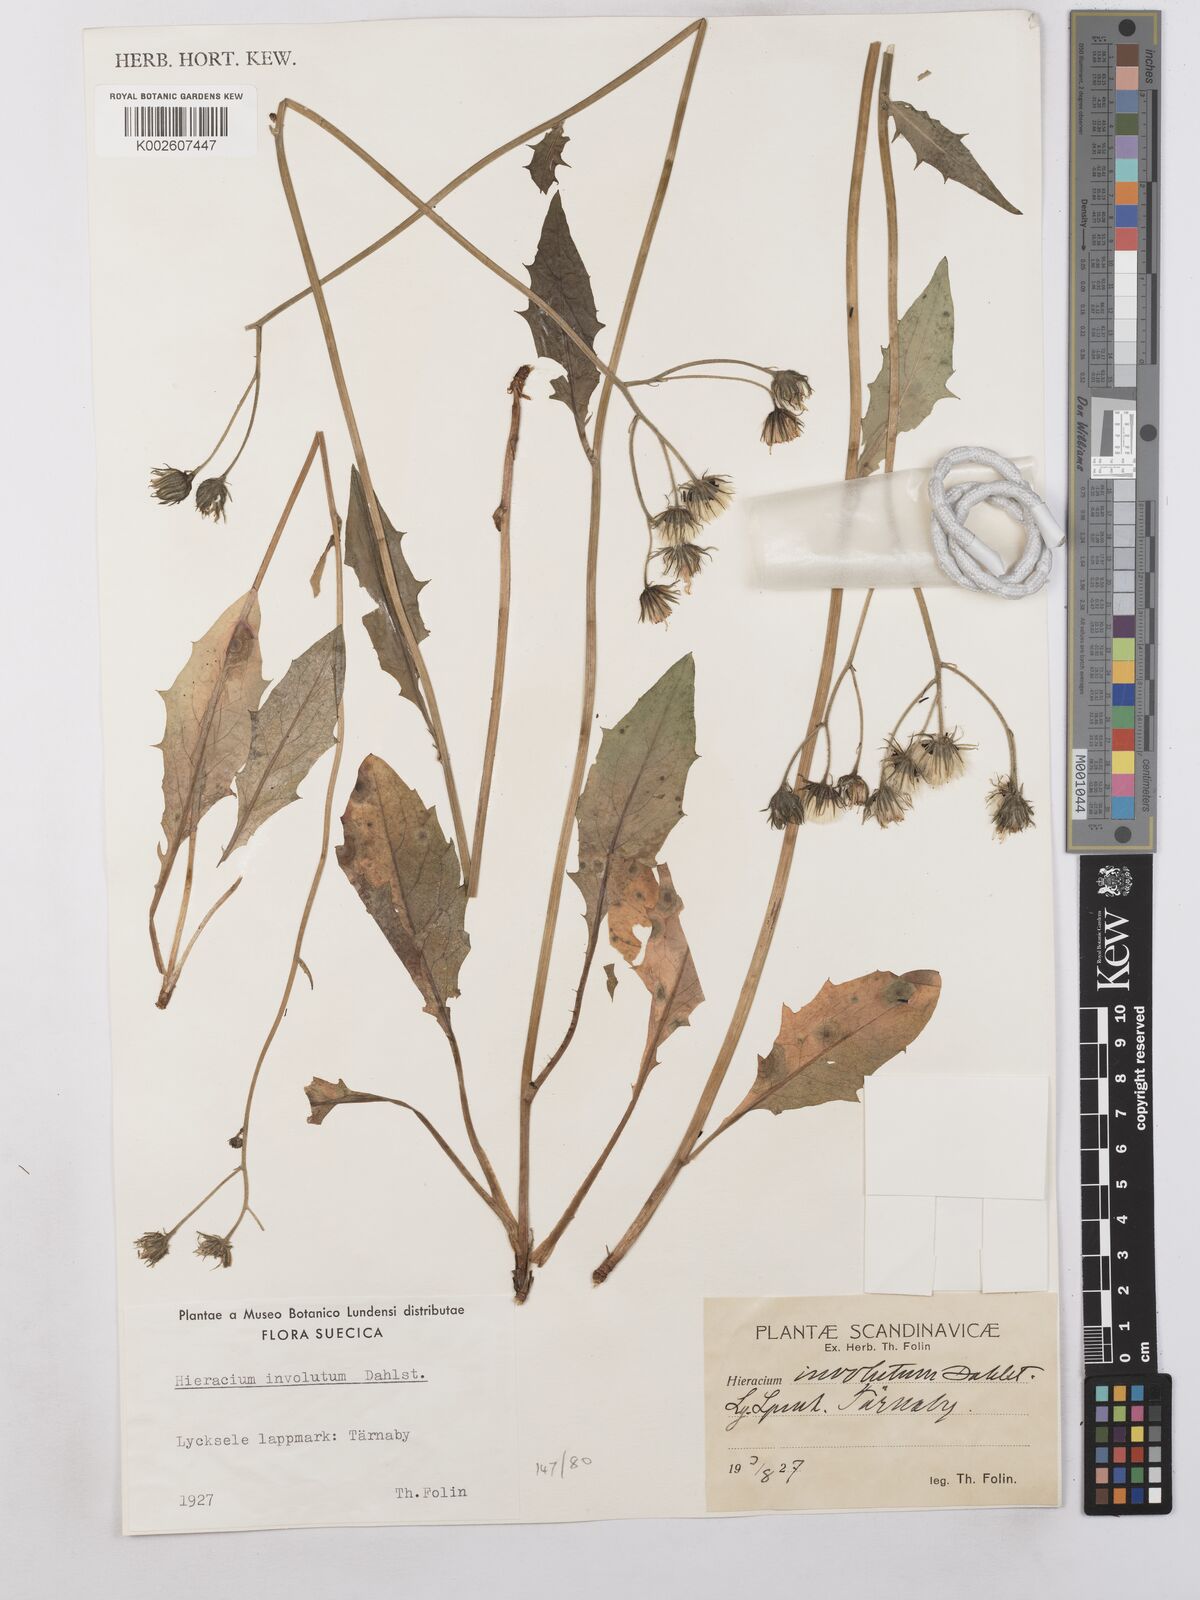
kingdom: Plantae
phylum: Tracheophyta
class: Magnoliopsida
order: Asterales
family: Asteraceae
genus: Hieracium
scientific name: Hieracium caesium
